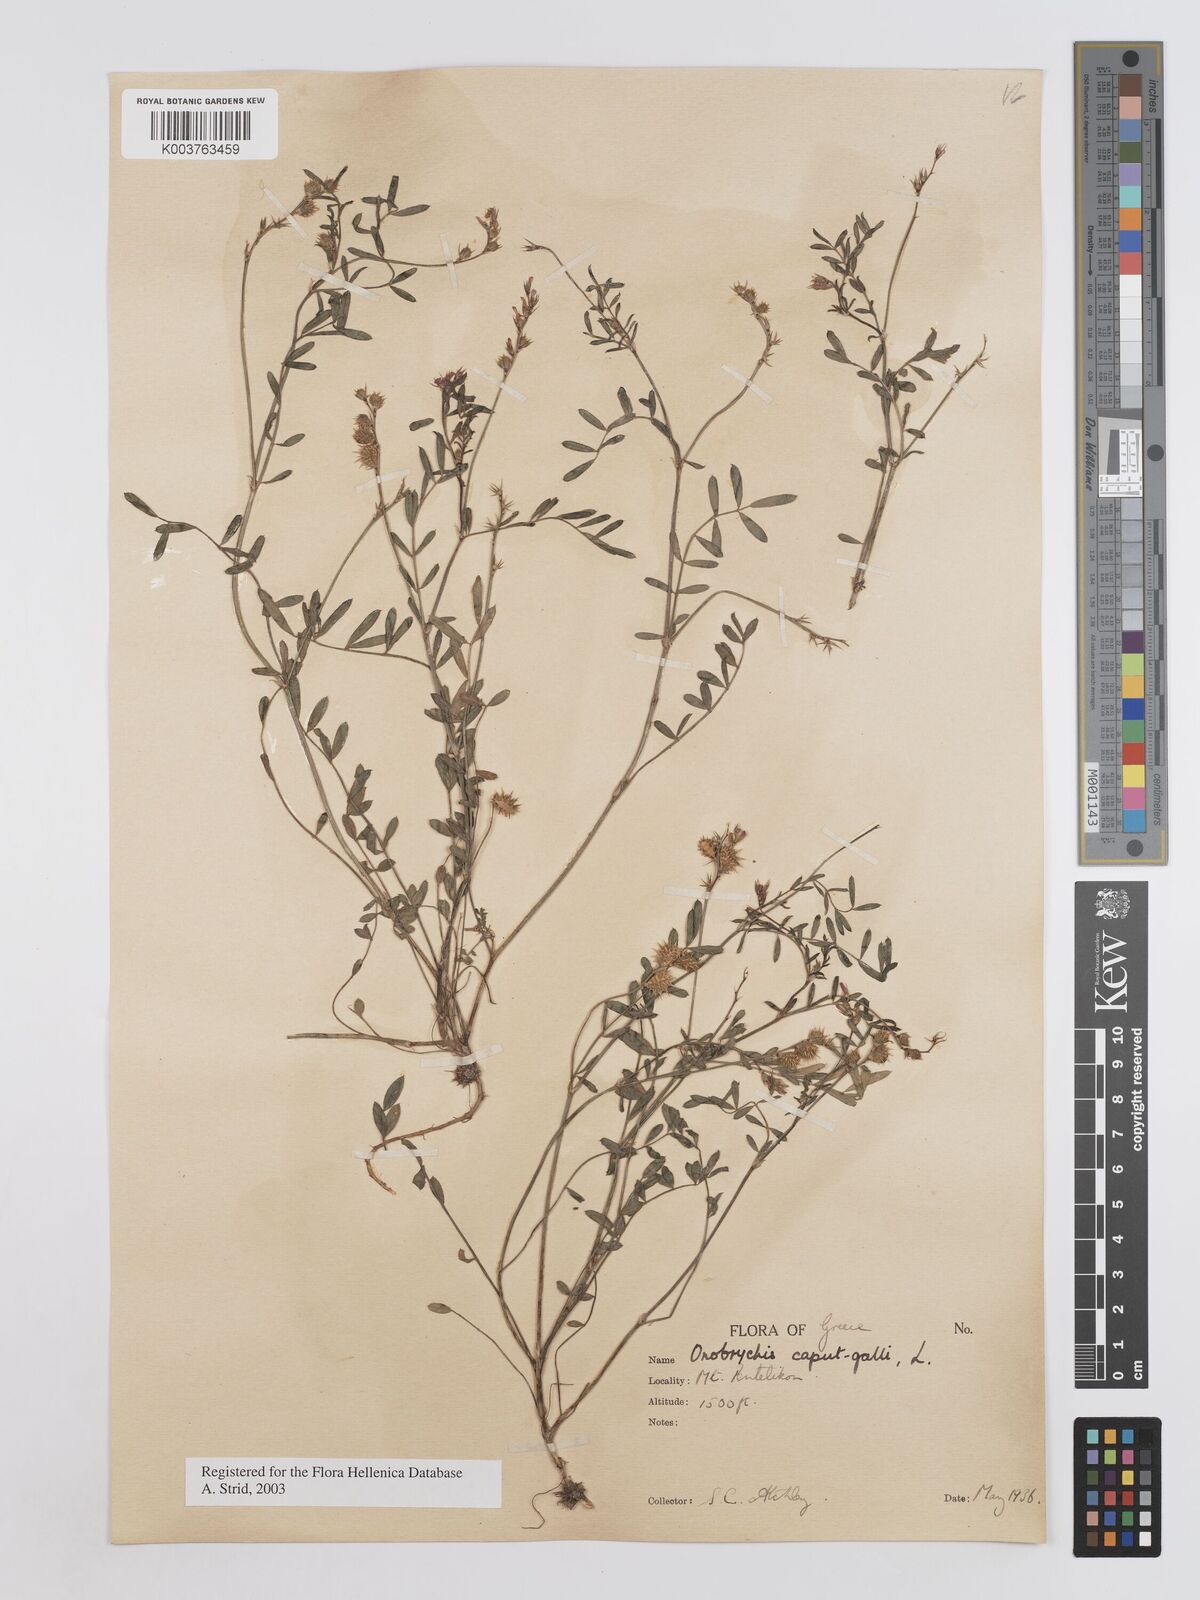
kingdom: Plantae
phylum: Tracheophyta
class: Magnoliopsida
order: Fabales
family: Fabaceae
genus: Onobrychis
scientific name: Onobrychis caput-galli
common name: Cockscomb sainfoin
